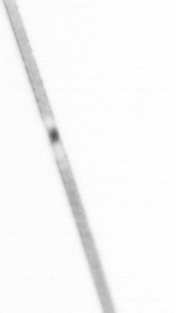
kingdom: Chromista
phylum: Ochrophyta
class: Bacillariophyceae
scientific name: Bacillariophyceae
